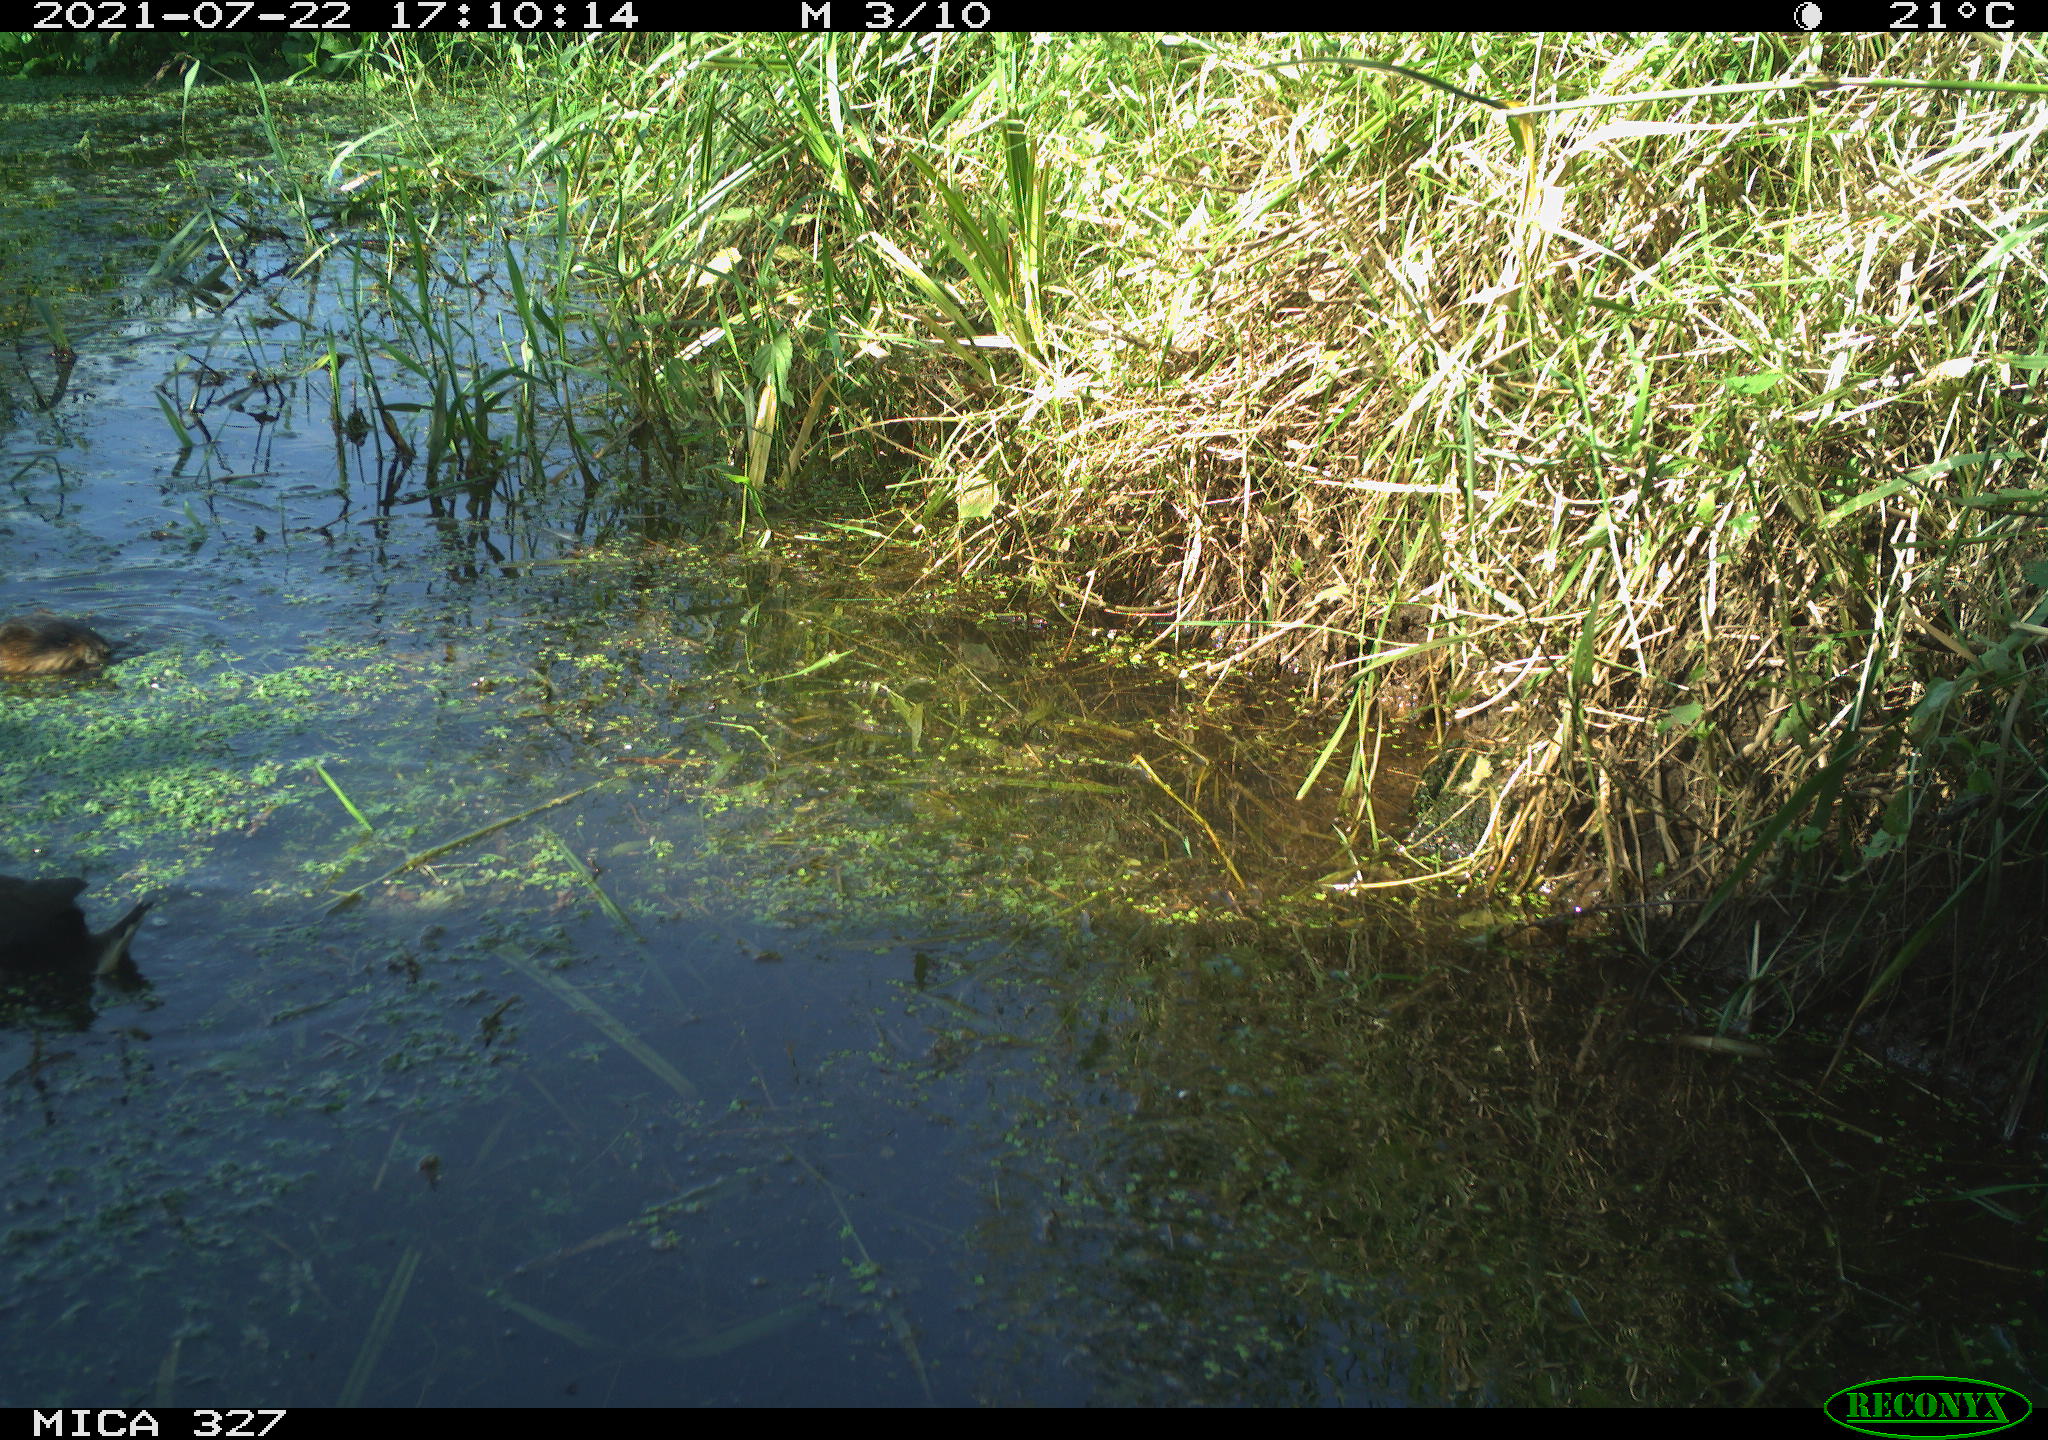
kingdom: Animalia
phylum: Chordata
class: Aves
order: Gruiformes
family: Rallidae
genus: Gallinula
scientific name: Gallinula chloropus
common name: Common moorhen
